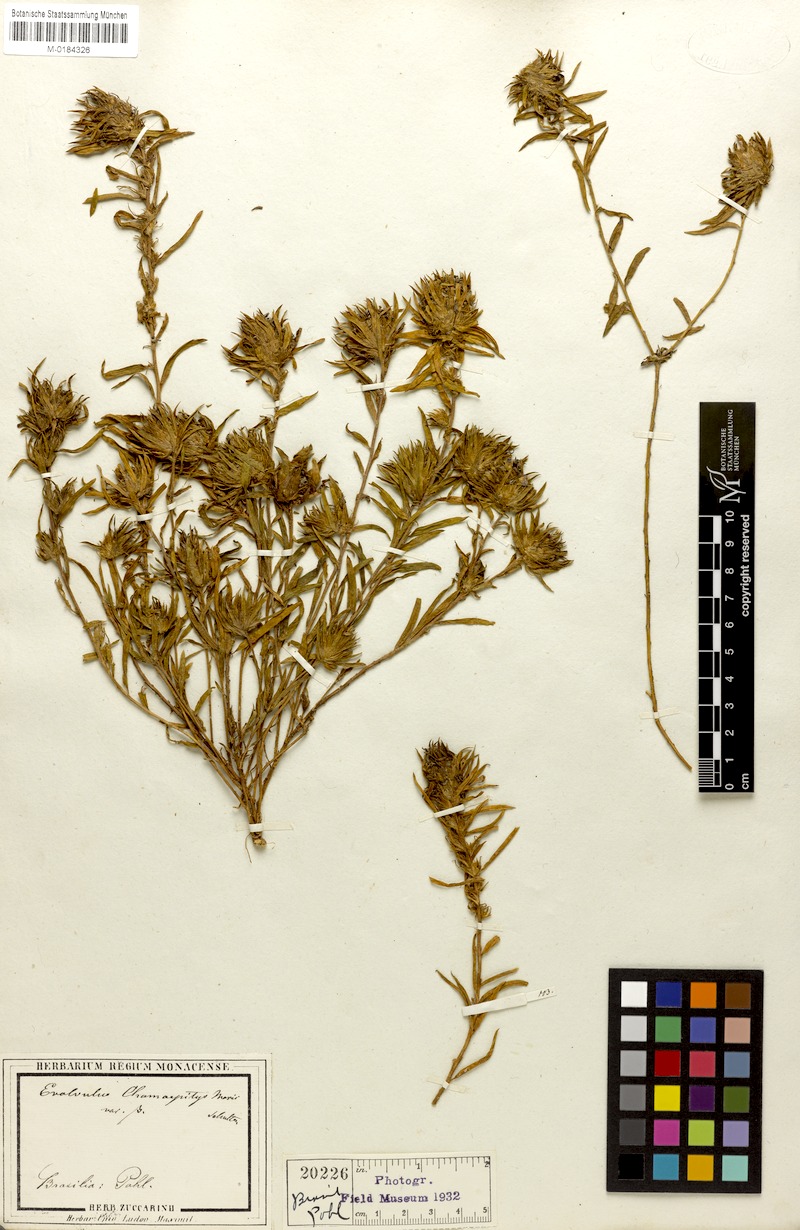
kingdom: Plantae
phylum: Tracheophyta
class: Magnoliopsida
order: Solanales
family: Convolvulaceae
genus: Evolvulus
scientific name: Evolvulus chamaepitys
